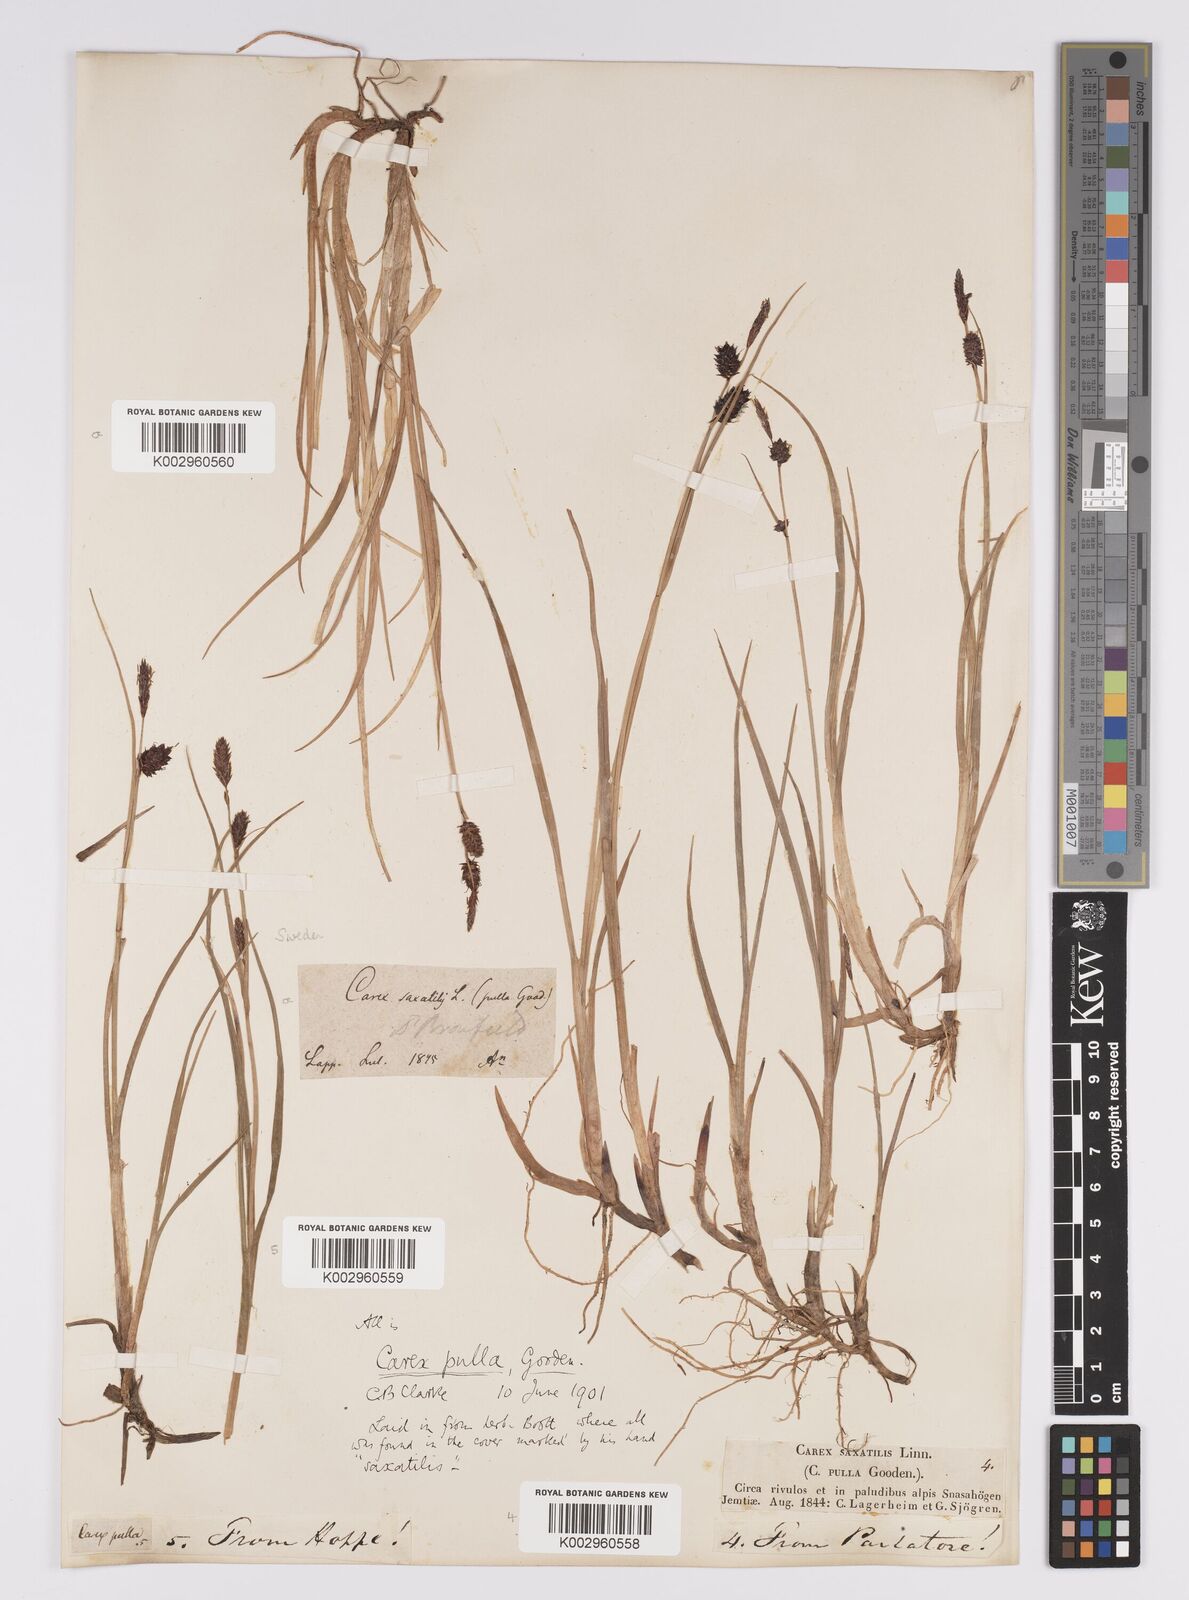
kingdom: Plantae
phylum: Tracheophyta
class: Liliopsida
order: Poales
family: Cyperaceae
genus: Carex
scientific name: Carex saxatilis
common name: Russet sedge
